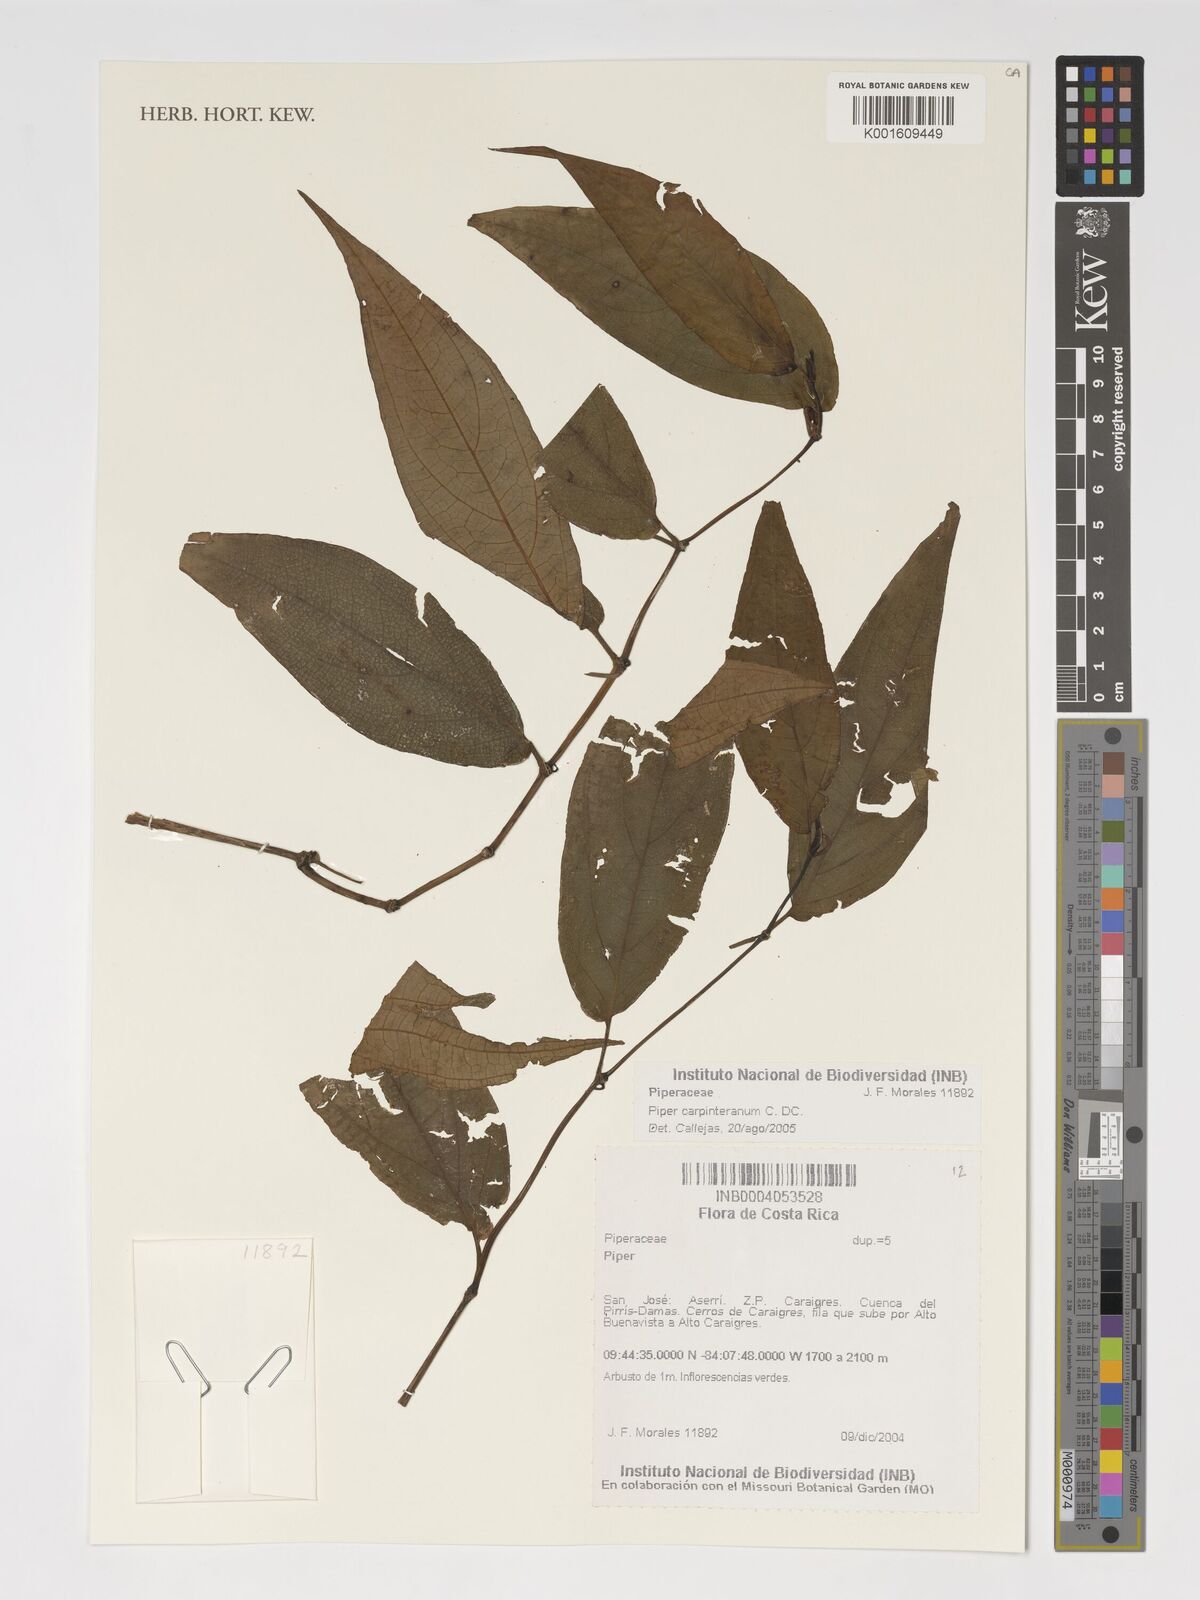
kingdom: Plantae
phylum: Tracheophyta
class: Magnoliopsida
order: Piperales
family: Piperaceae
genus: Piper
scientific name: Piper carpinteranum
